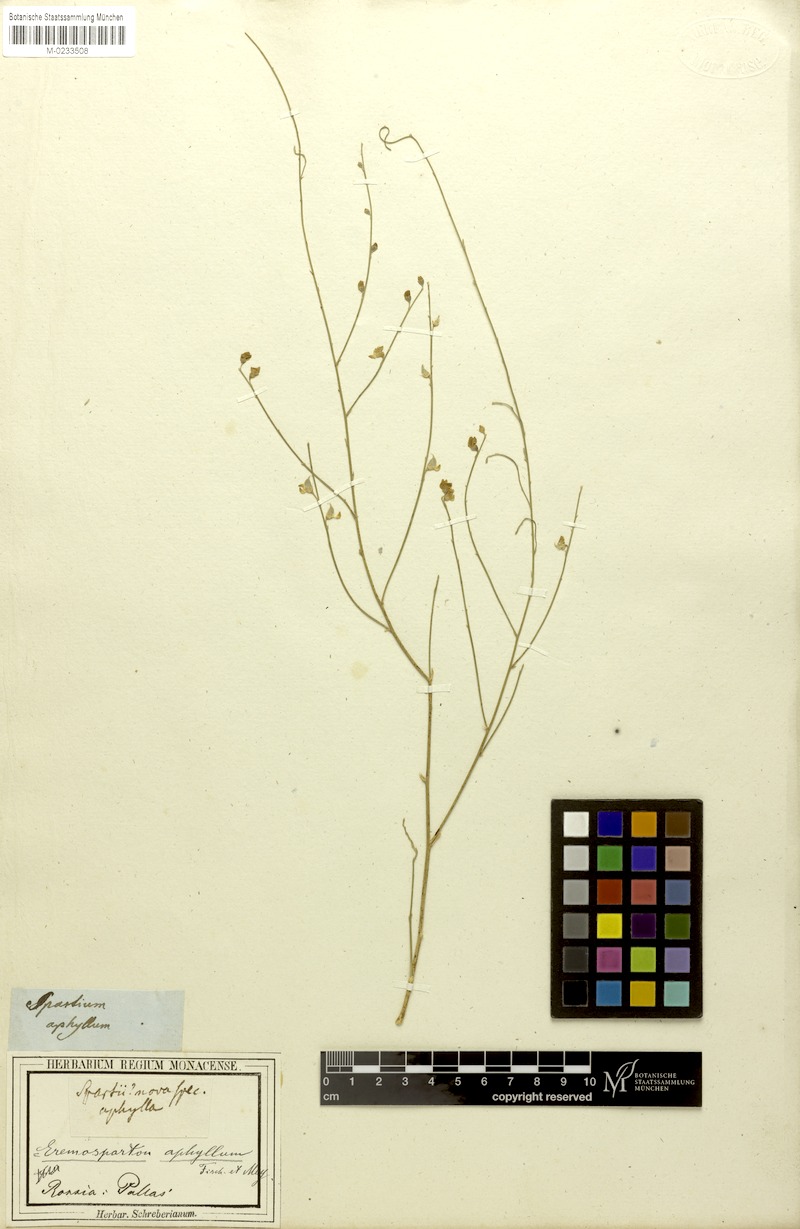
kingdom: Plantae
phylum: Tracheophyta
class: Magnoliopsida
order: Fabales
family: Fabaceae
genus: Eremosparton
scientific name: Eremosparton aphyllum
